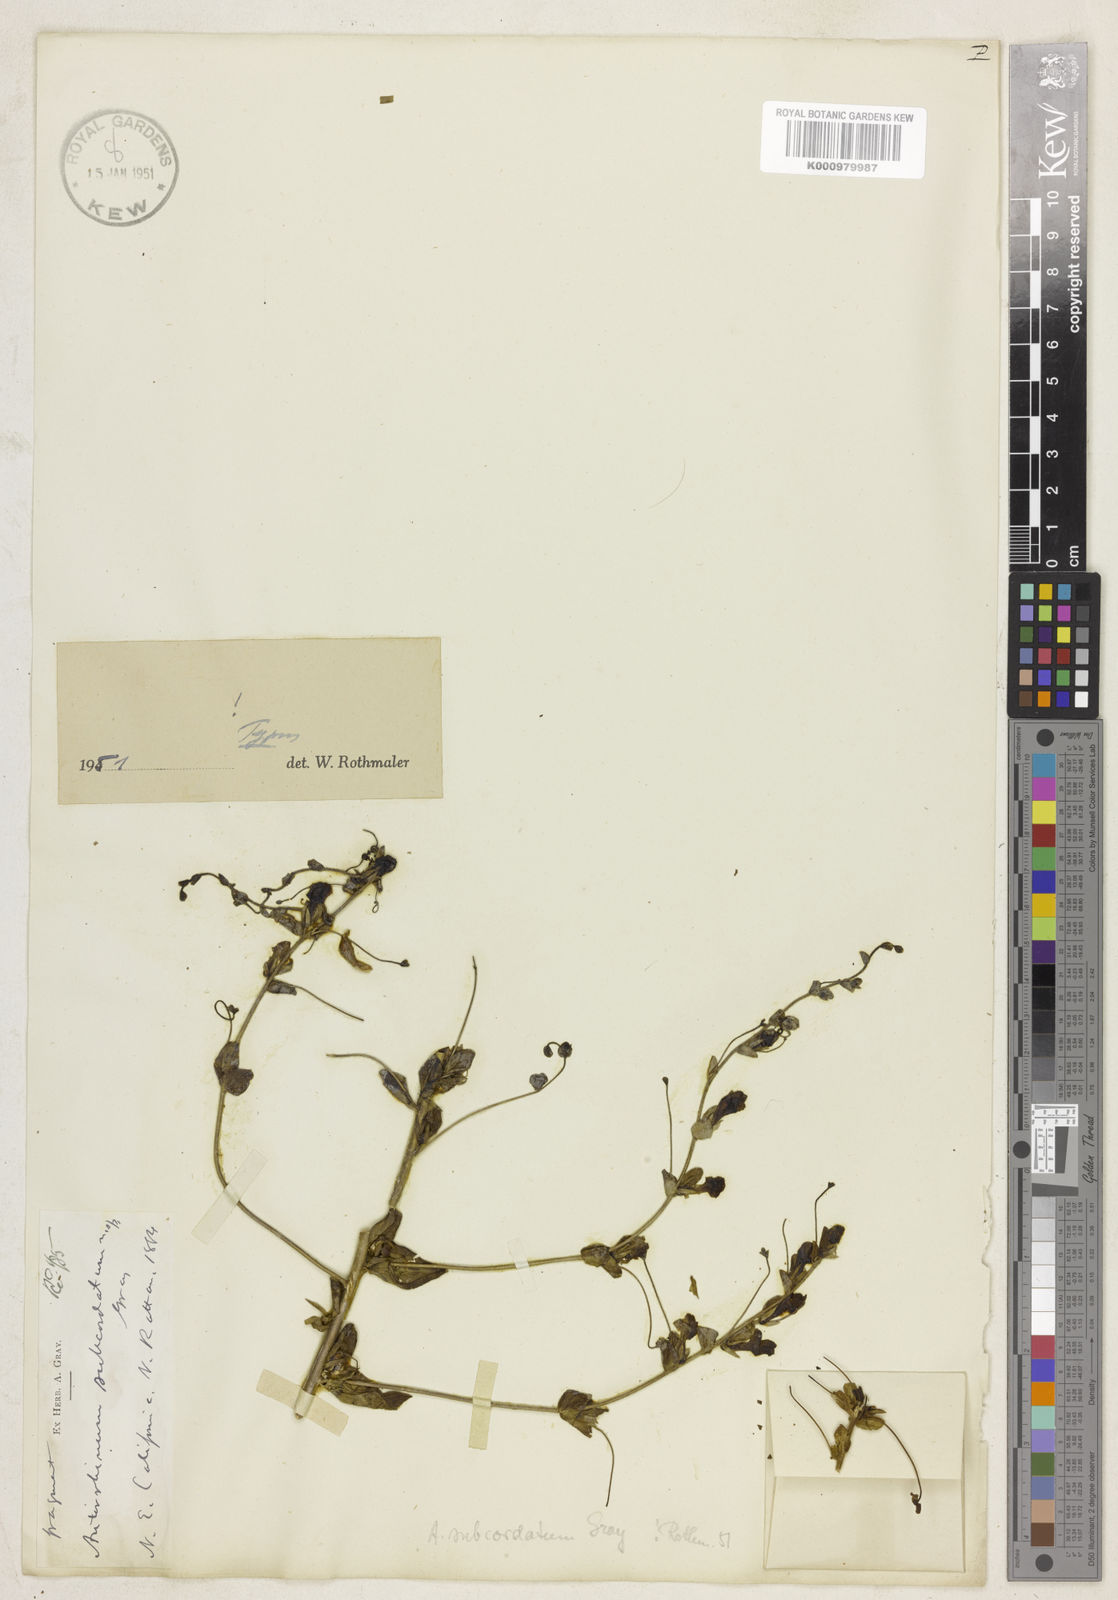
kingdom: Plantae
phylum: Tracheophyta
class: Magnoliopsida
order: Lamiales
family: Plantaginaceae
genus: Sairocarpus
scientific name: Sairocarpus subcordatus
